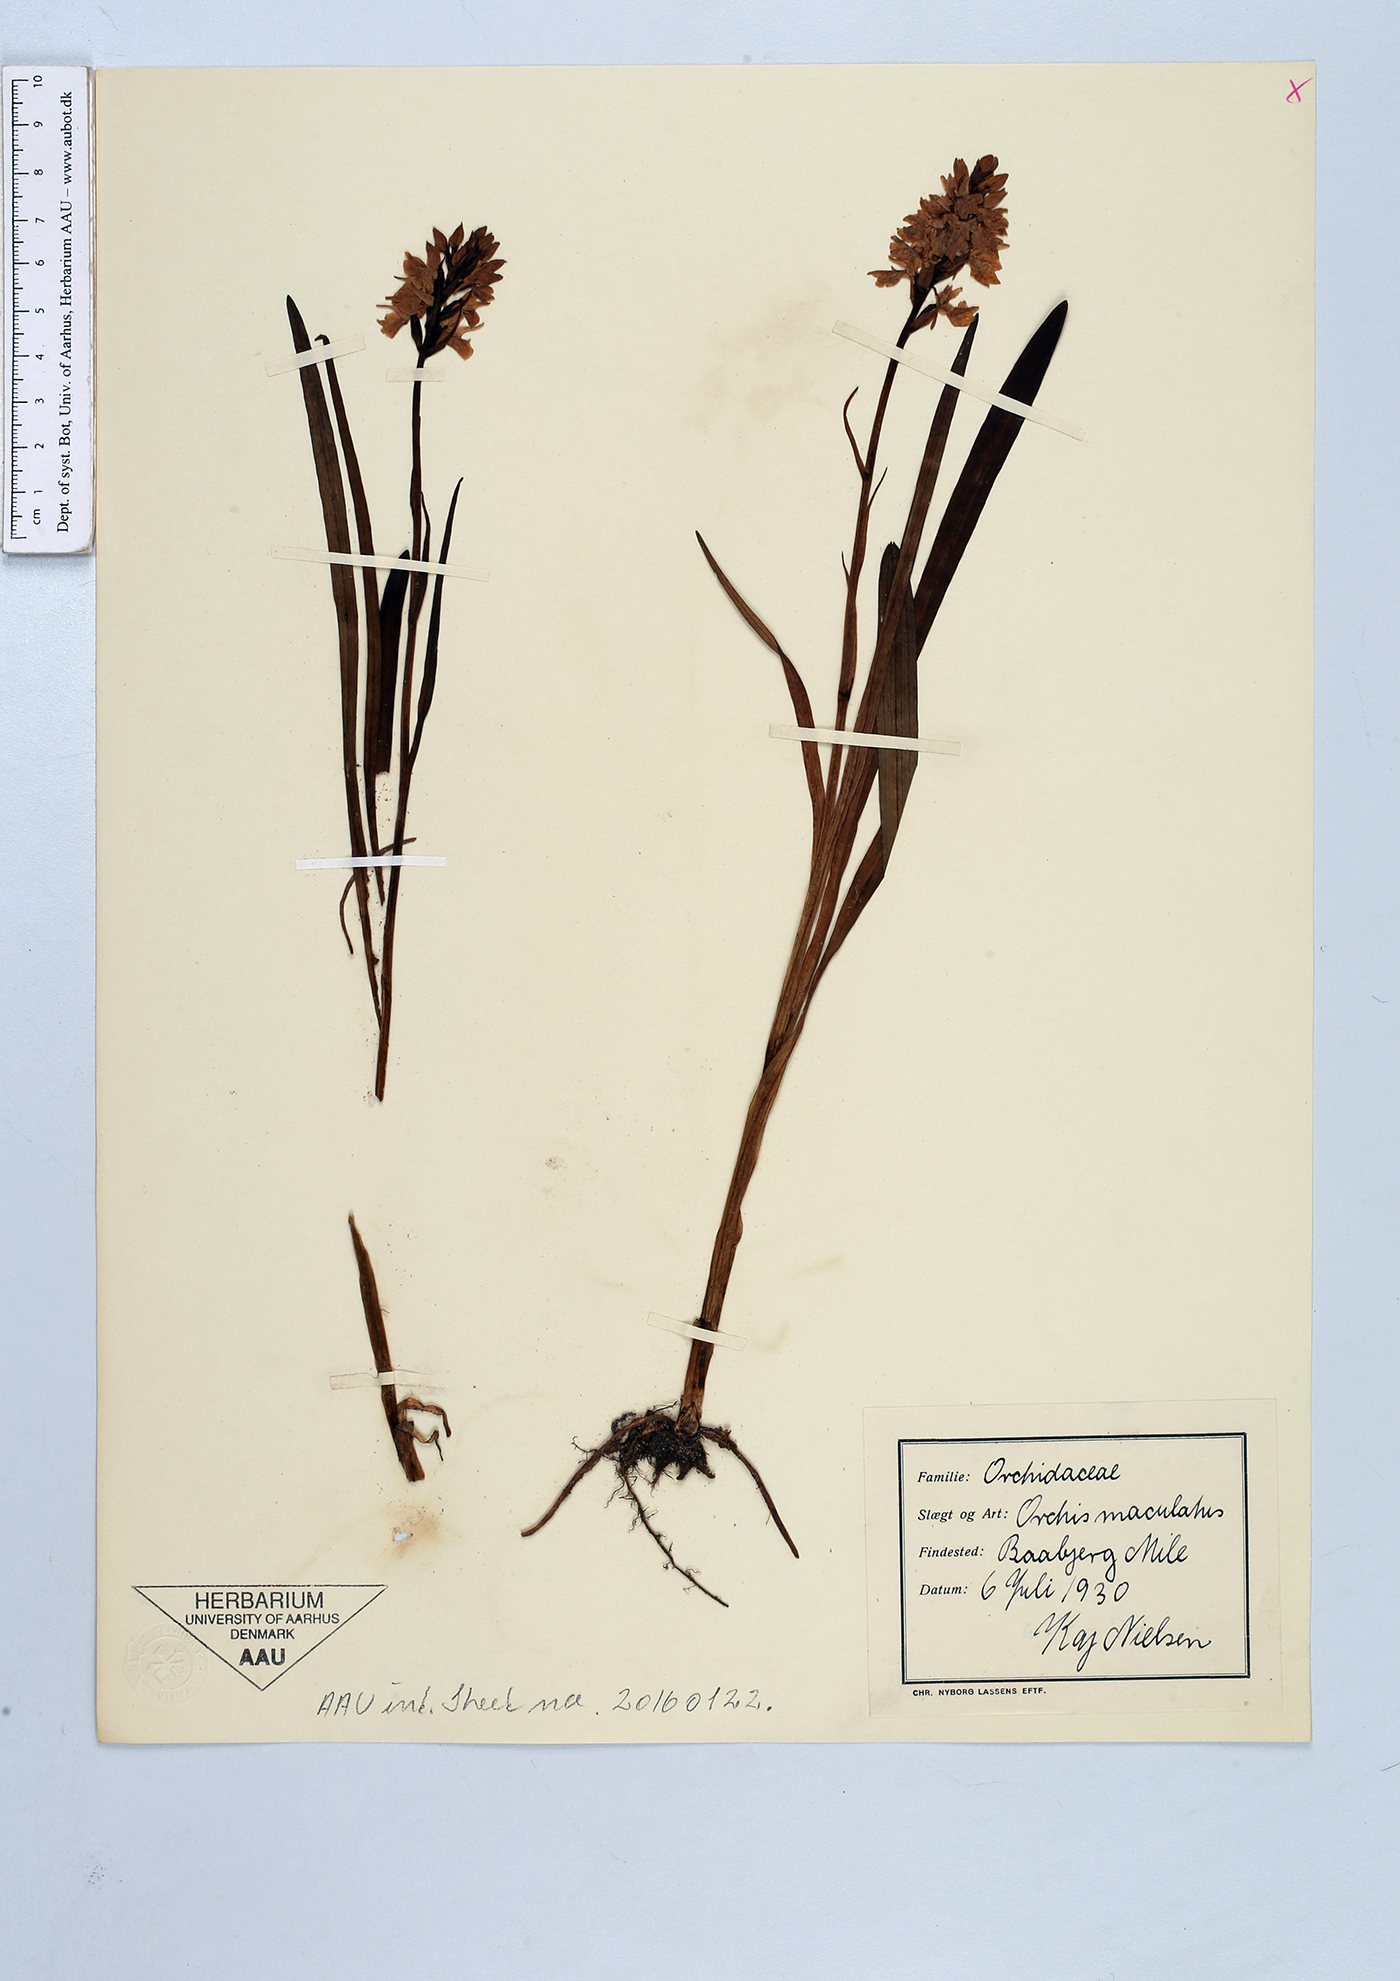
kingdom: Plantae
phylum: Tracheophyta
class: Liliopsida
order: Asparagales
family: Orchidaceae
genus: Dactylorhiza
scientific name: Dactylorhiza maculata
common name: Heath spotted-orchid
